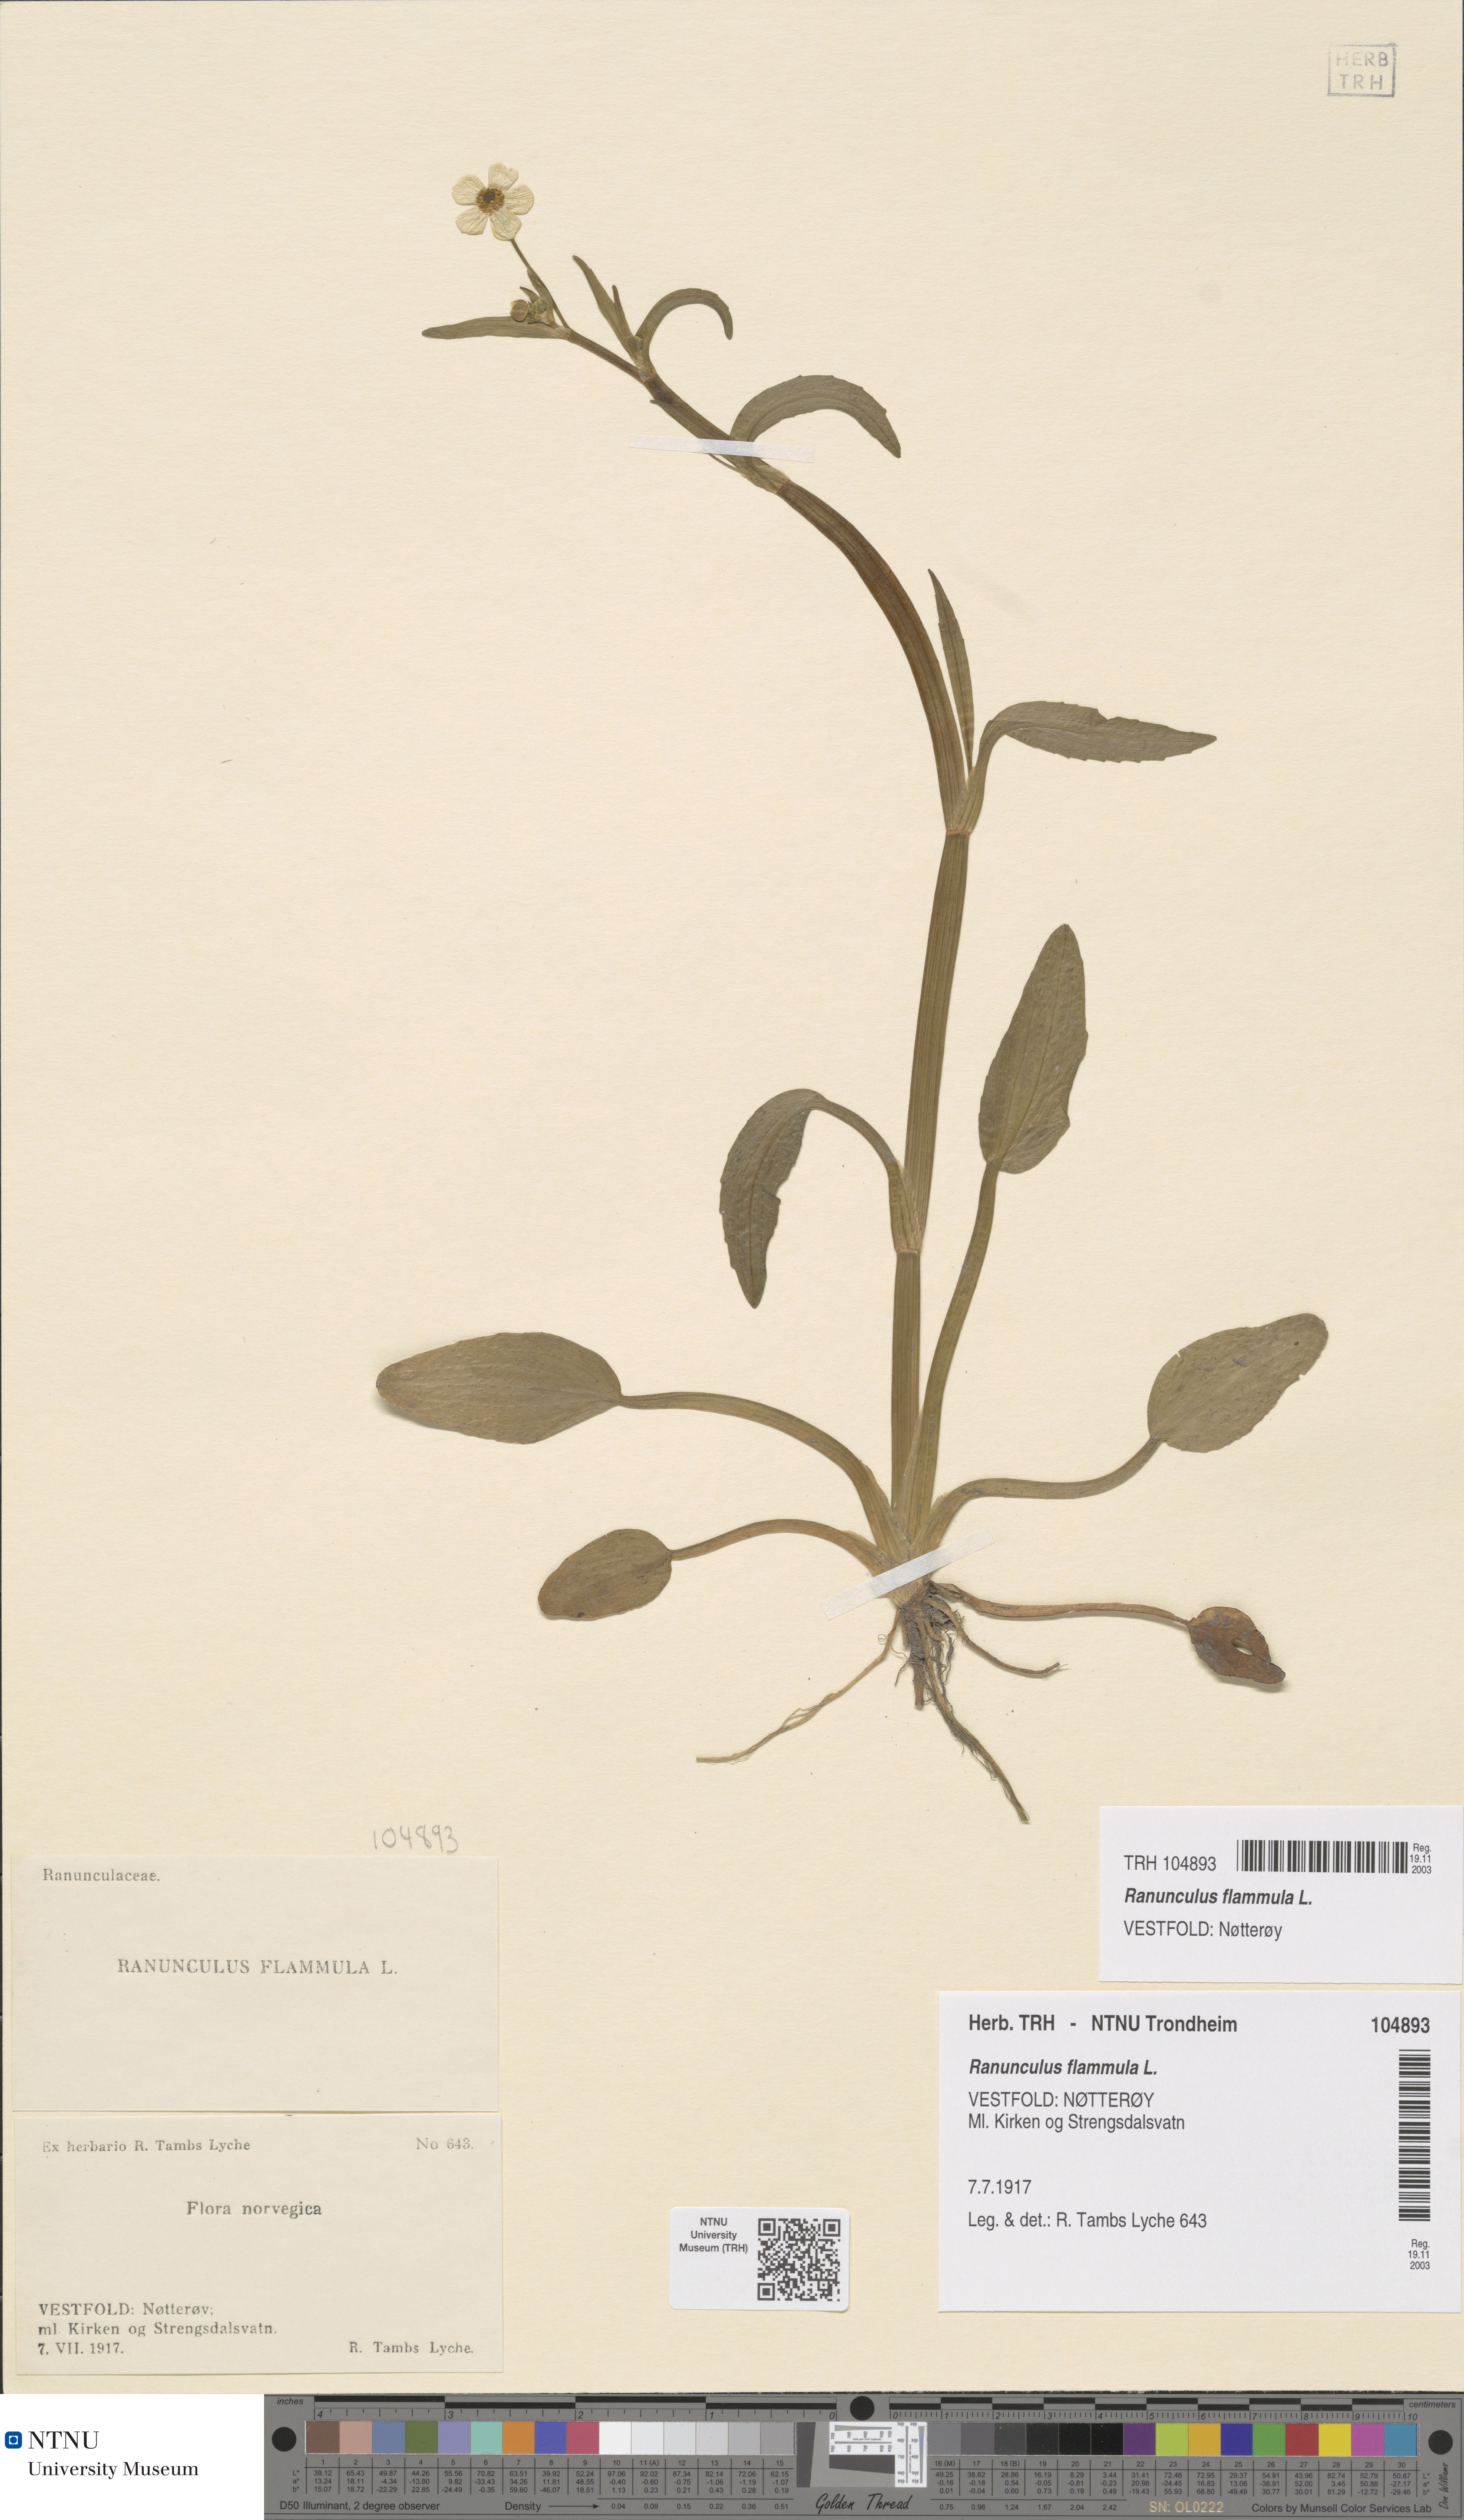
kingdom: Plantae
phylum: Tracheophyta
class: Magnoliopsida
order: Ranunculales
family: Ranunculaceae
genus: Ranunculus
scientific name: Ranunculus flammula
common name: Lesser spearwort
